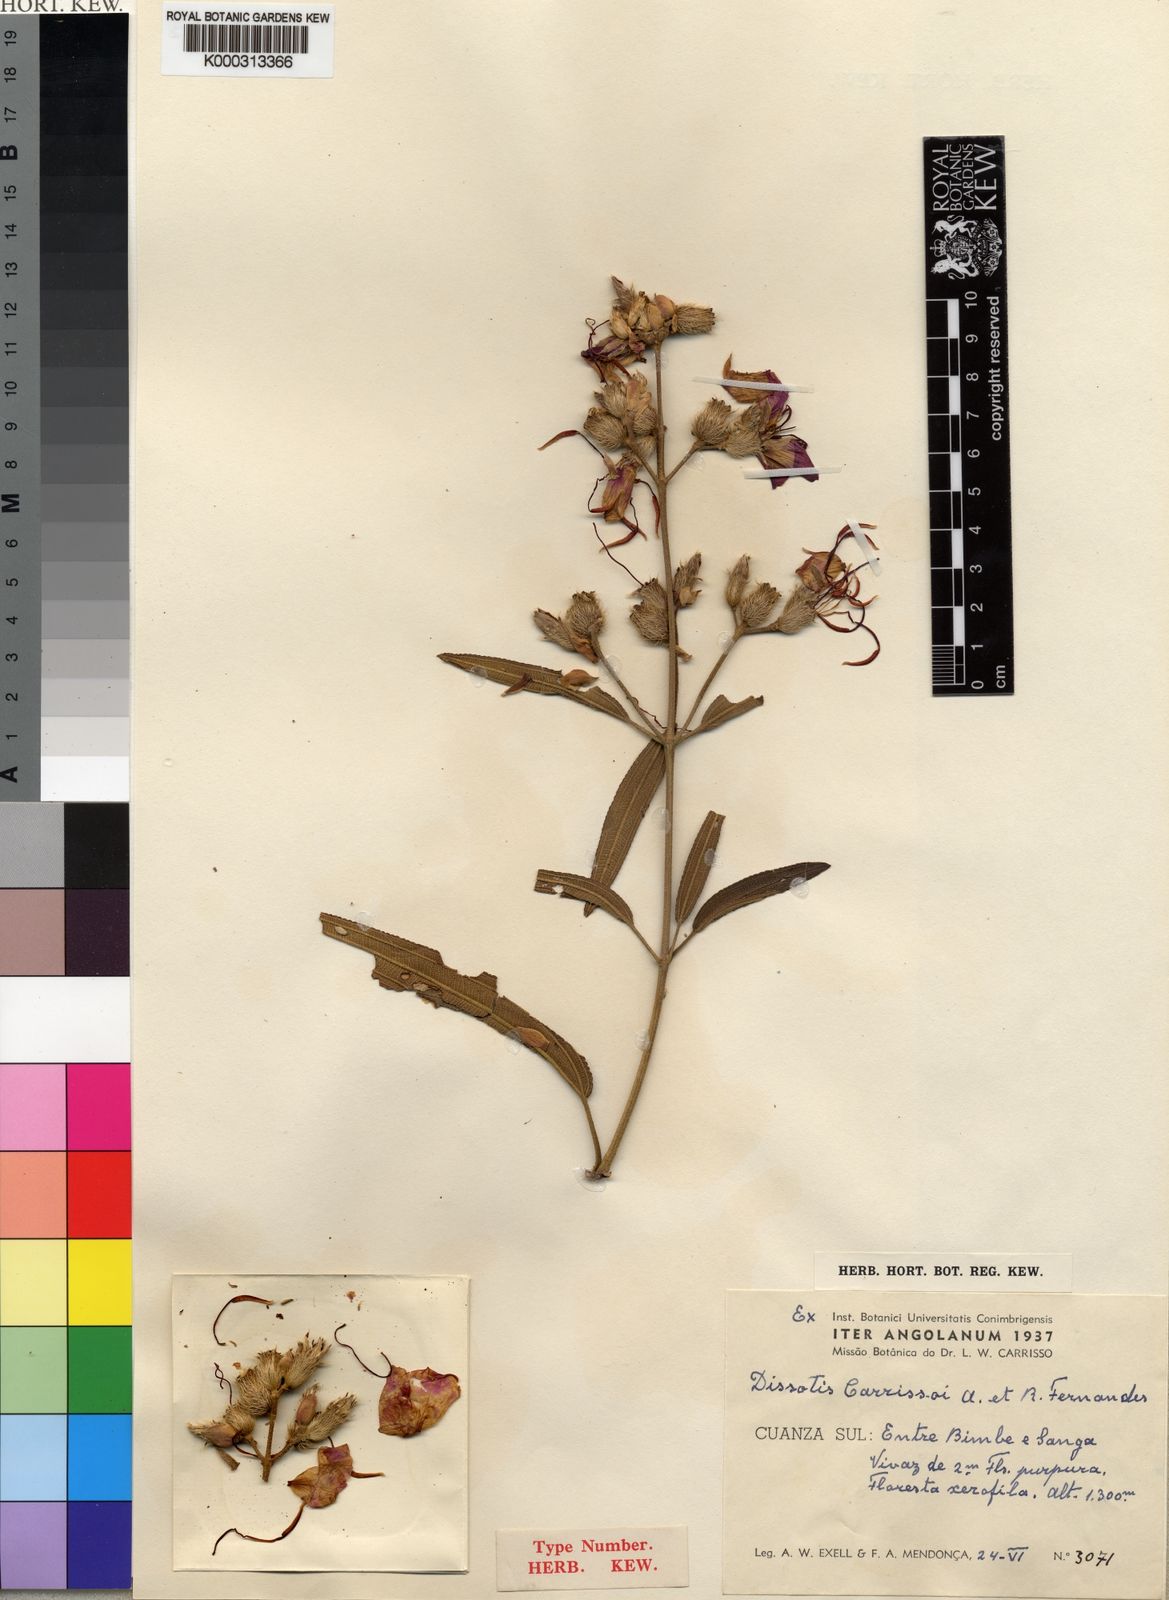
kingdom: Plantae
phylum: Tracheophyta
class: Magnoliopsida
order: Myrtales
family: Melastomataceae
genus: Rosettea
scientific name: Rosettea carrissoi
